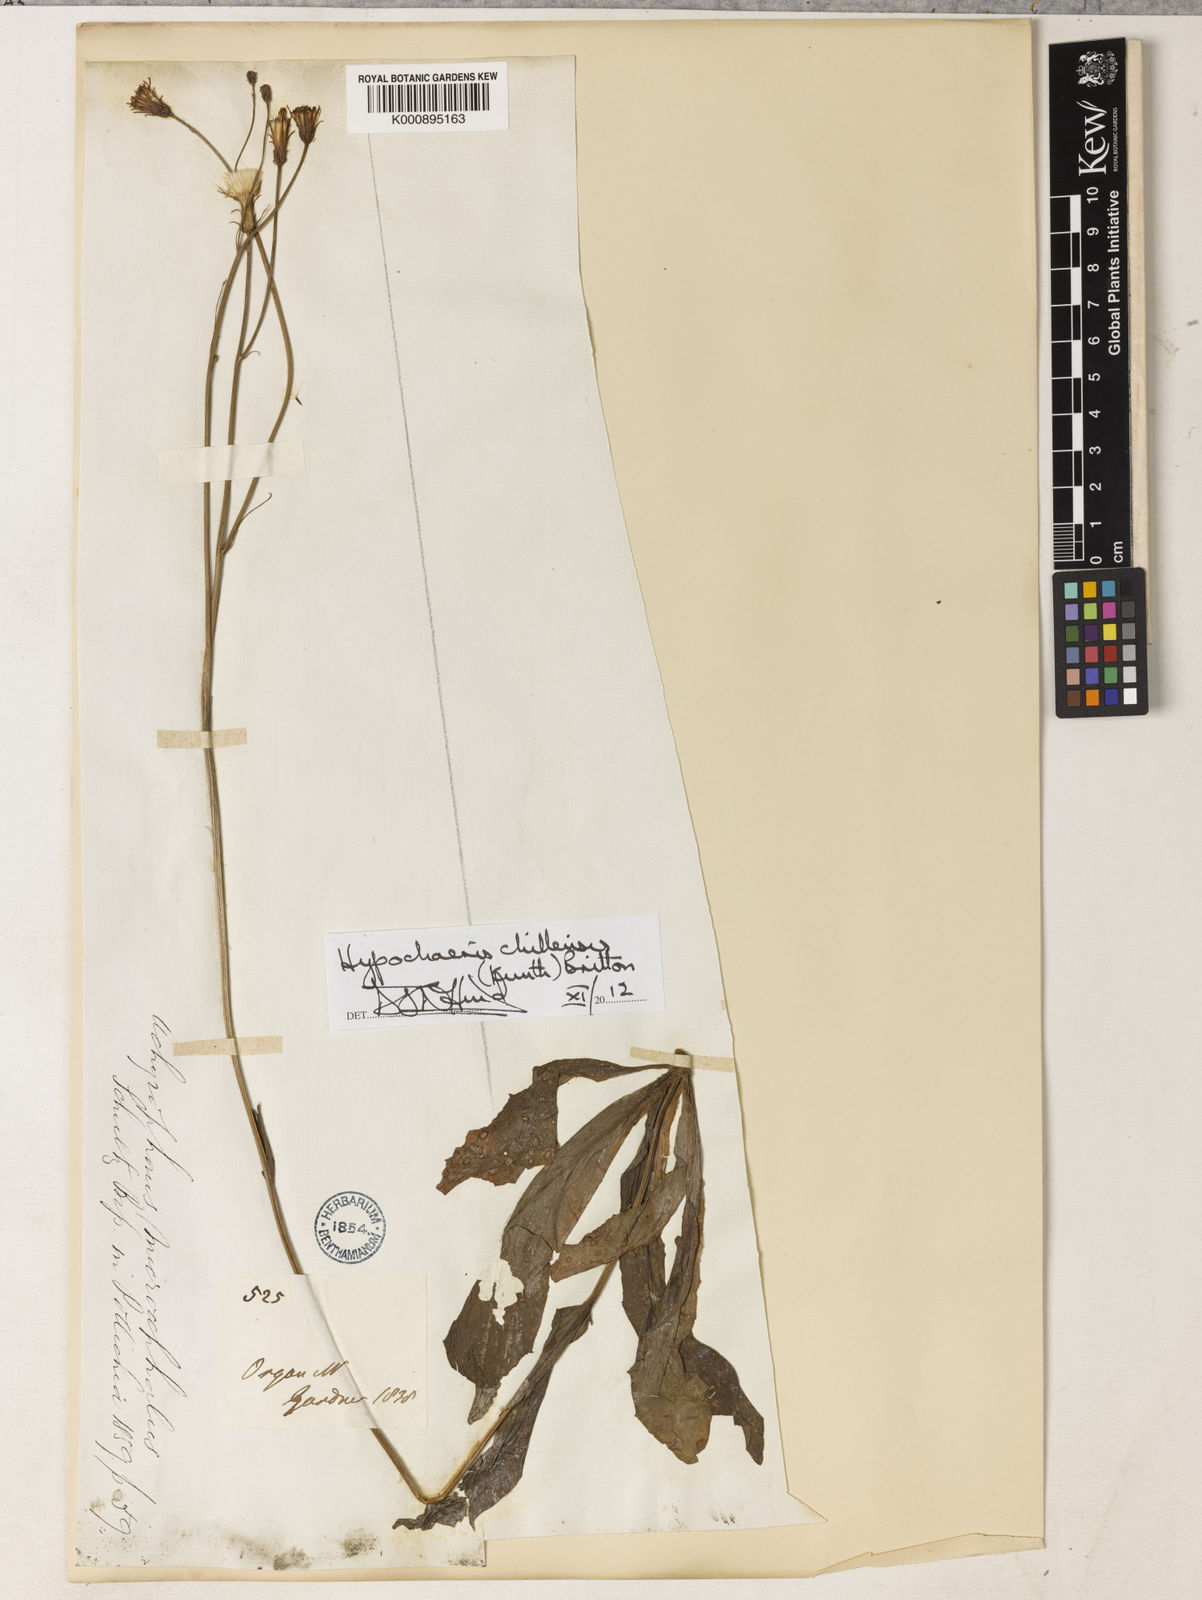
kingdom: Plantae
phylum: Tracheophyta
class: Magnoliopsida
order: Asterales
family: Asteraceae
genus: Hypochaeris
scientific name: Hypochaeris chillensis
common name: Brazilian cat's ear
